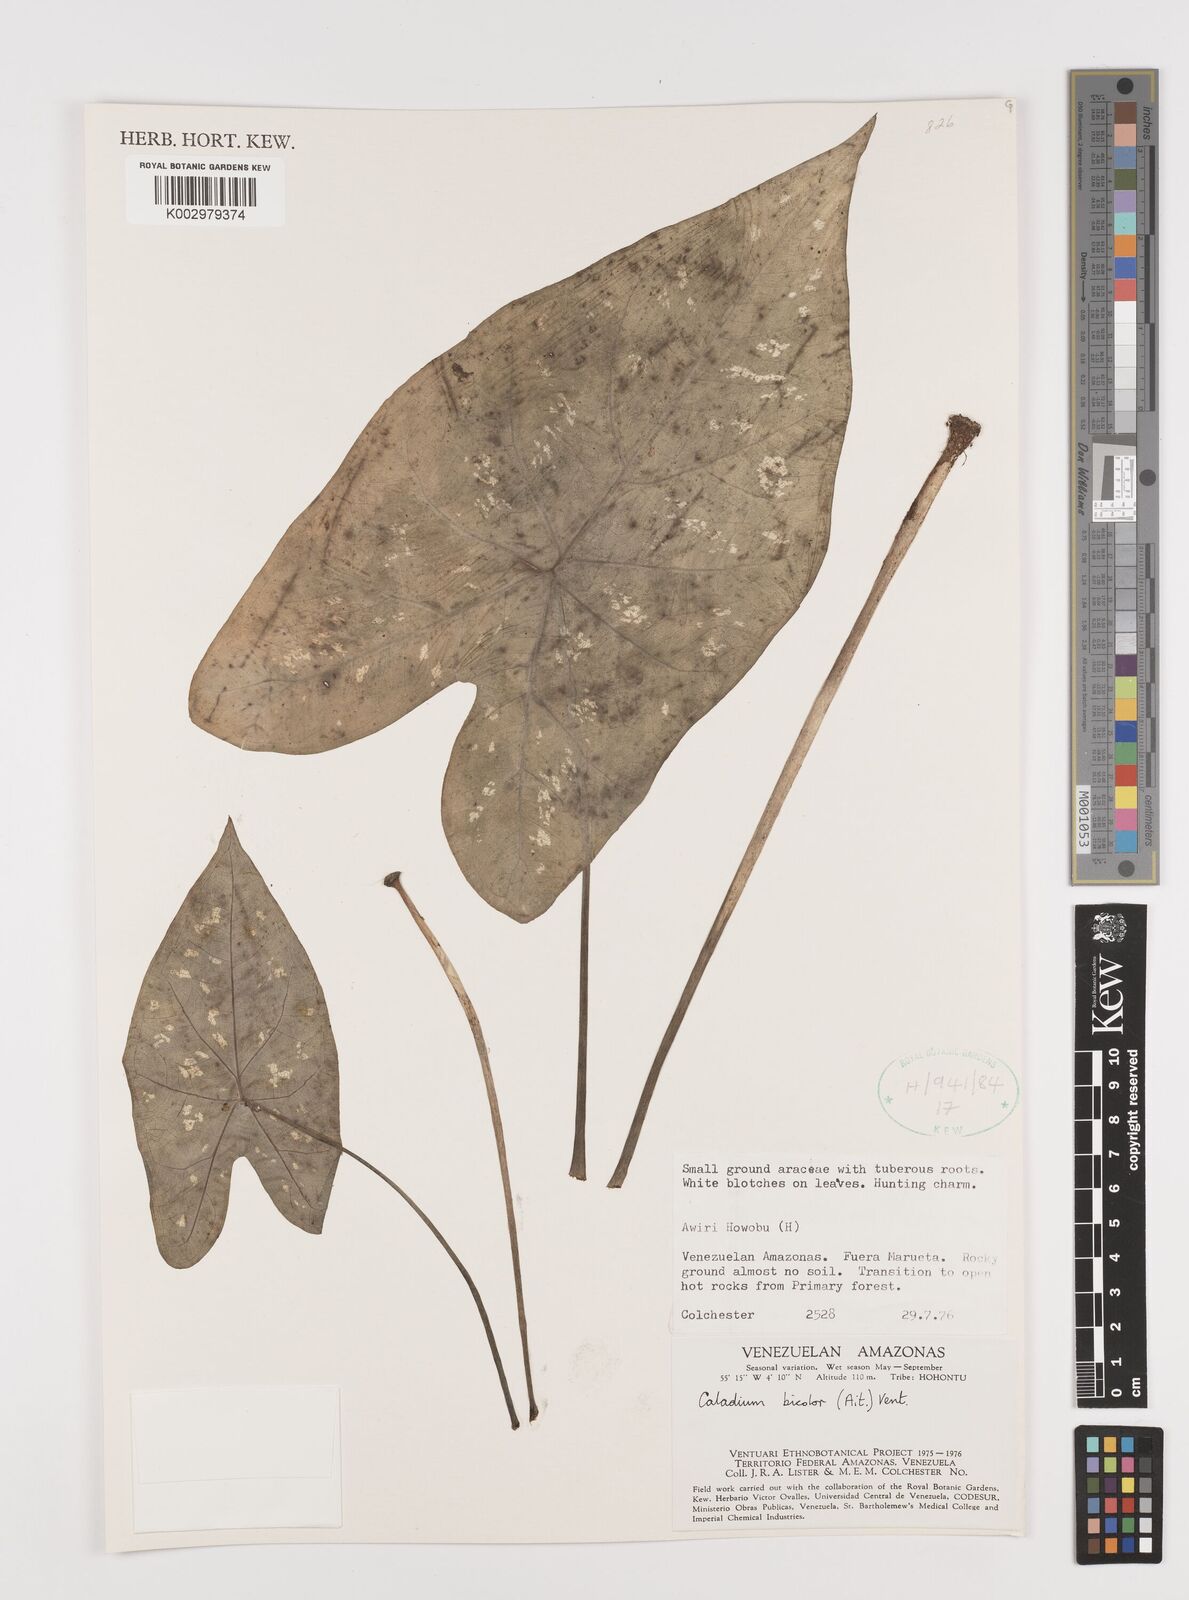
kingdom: Plantae
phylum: Tracheophyta
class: Liliopsida
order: Alismatales
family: Araceae
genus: Caladium
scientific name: Caladium bicolor
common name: Artist's pallet
